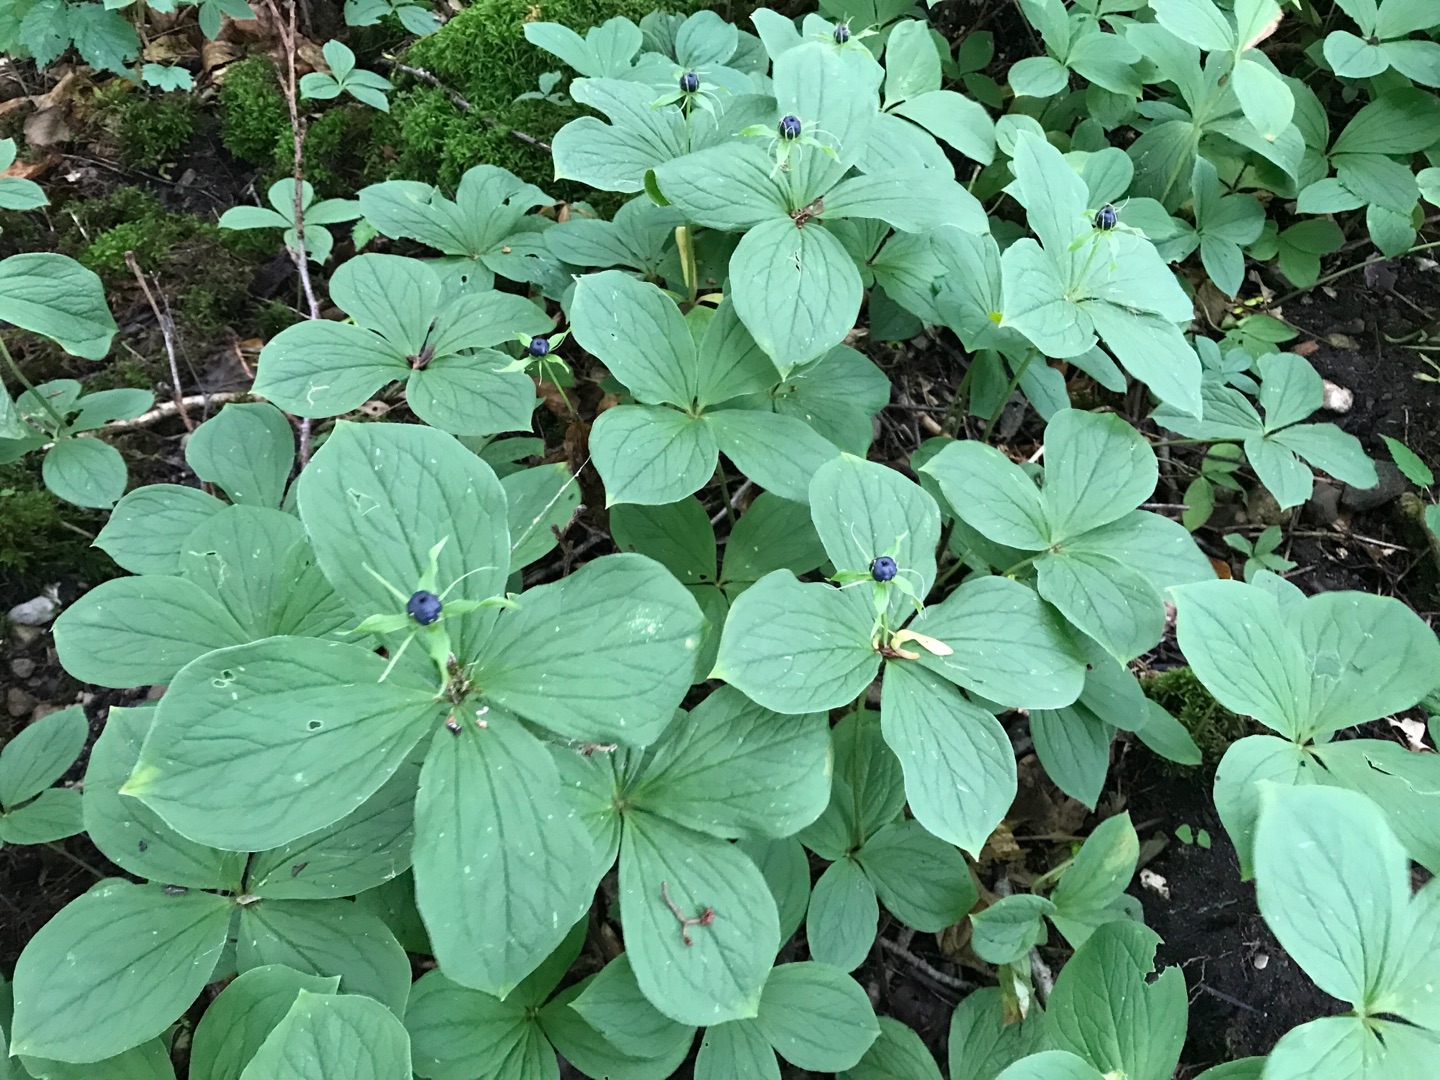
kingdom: Plantae
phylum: Tracheophyta
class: Liliopsida
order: Liliales
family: Melanthiaceae
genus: Paris
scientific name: Paris quadrifolia
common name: Firblad
